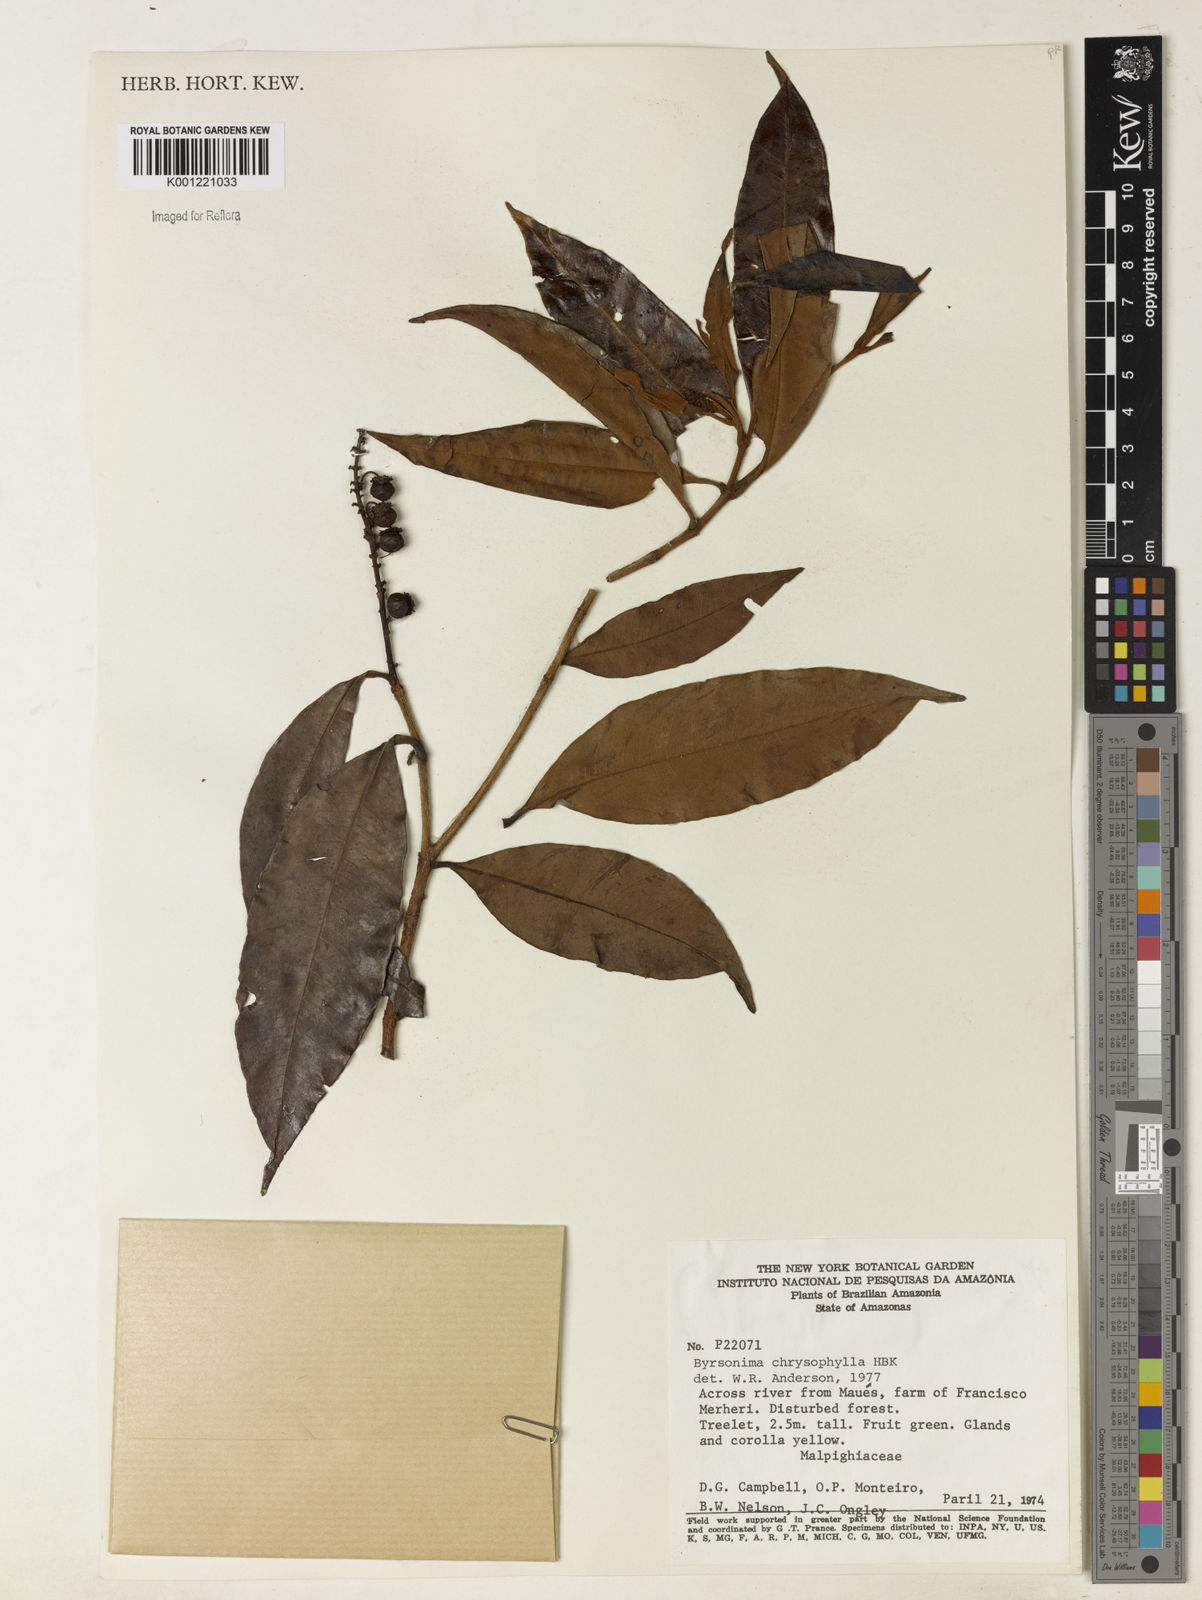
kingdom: Plantae
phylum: Tracheophyta
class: Magnoliopsida
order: Malpighiales
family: Malpighiaceae
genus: Byrsonima
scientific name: Byrsonima chrysophylla
